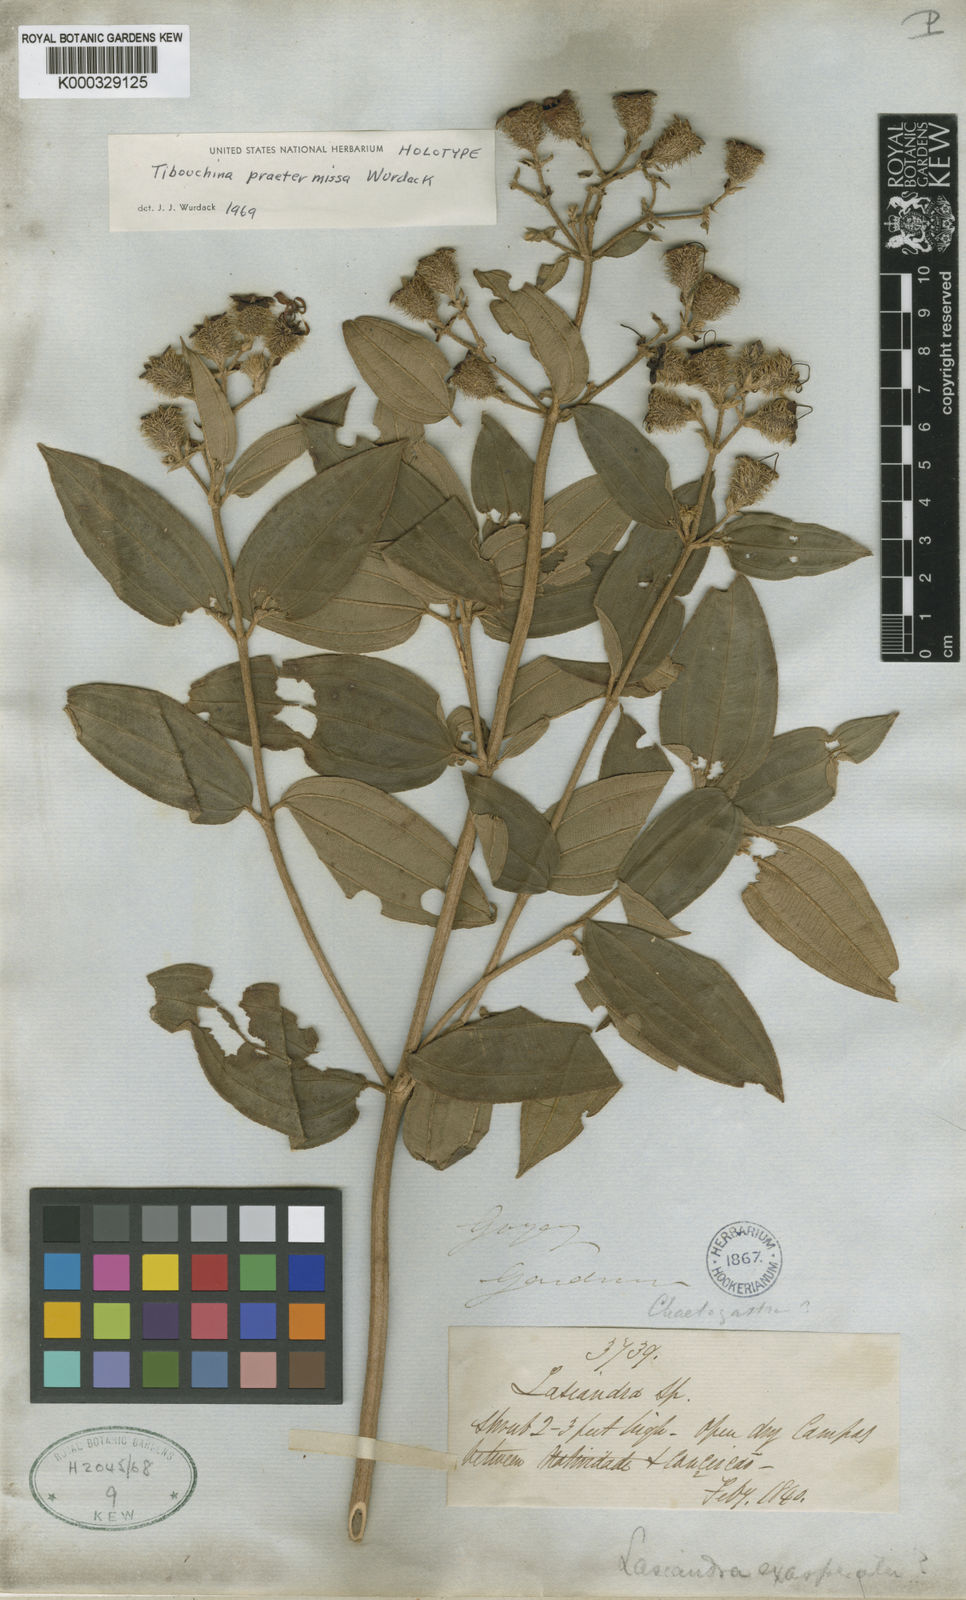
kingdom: Plantae
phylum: Tracheophyta
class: Magnoliopsida
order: Myrtales
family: Melastomataceae
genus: Tibouchina
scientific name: Tibouchina
